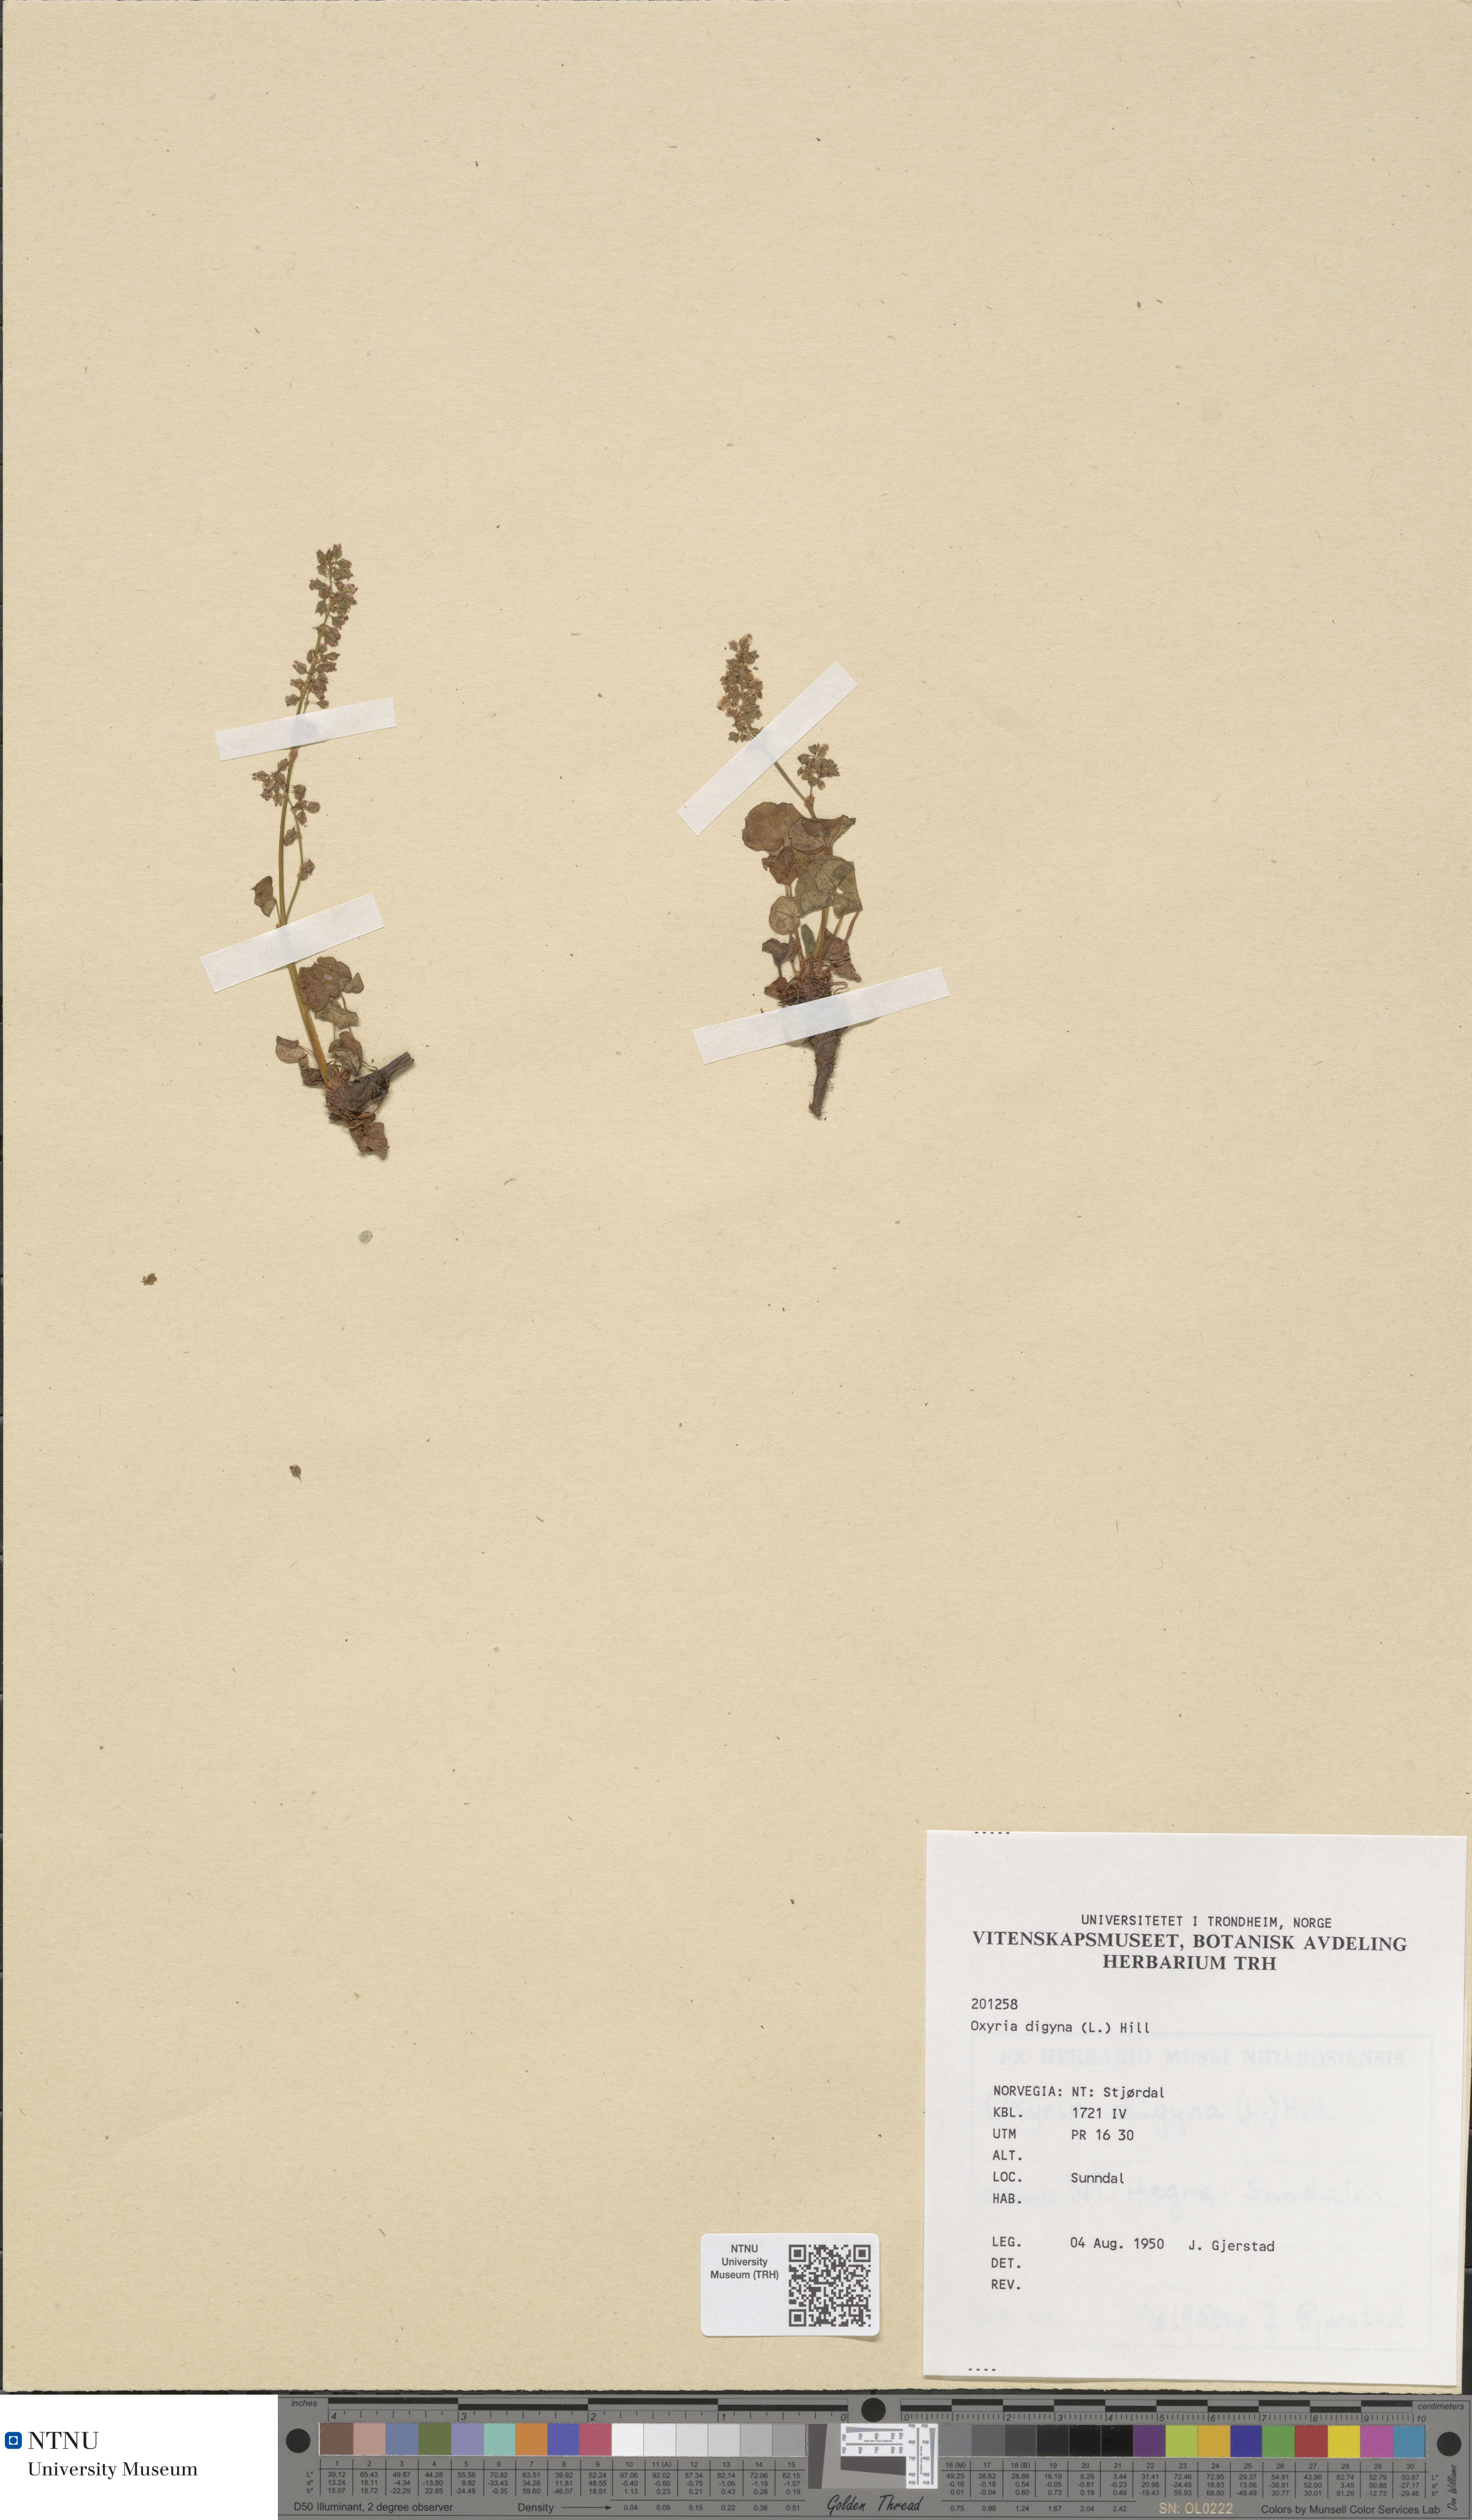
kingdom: Plantae
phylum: Tracheophyta
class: Magnoliopsida
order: Caryophyllales
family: Polygonaceae
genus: Oxyria
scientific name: Oxyria digyna
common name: Alpine mountain-sorrel
